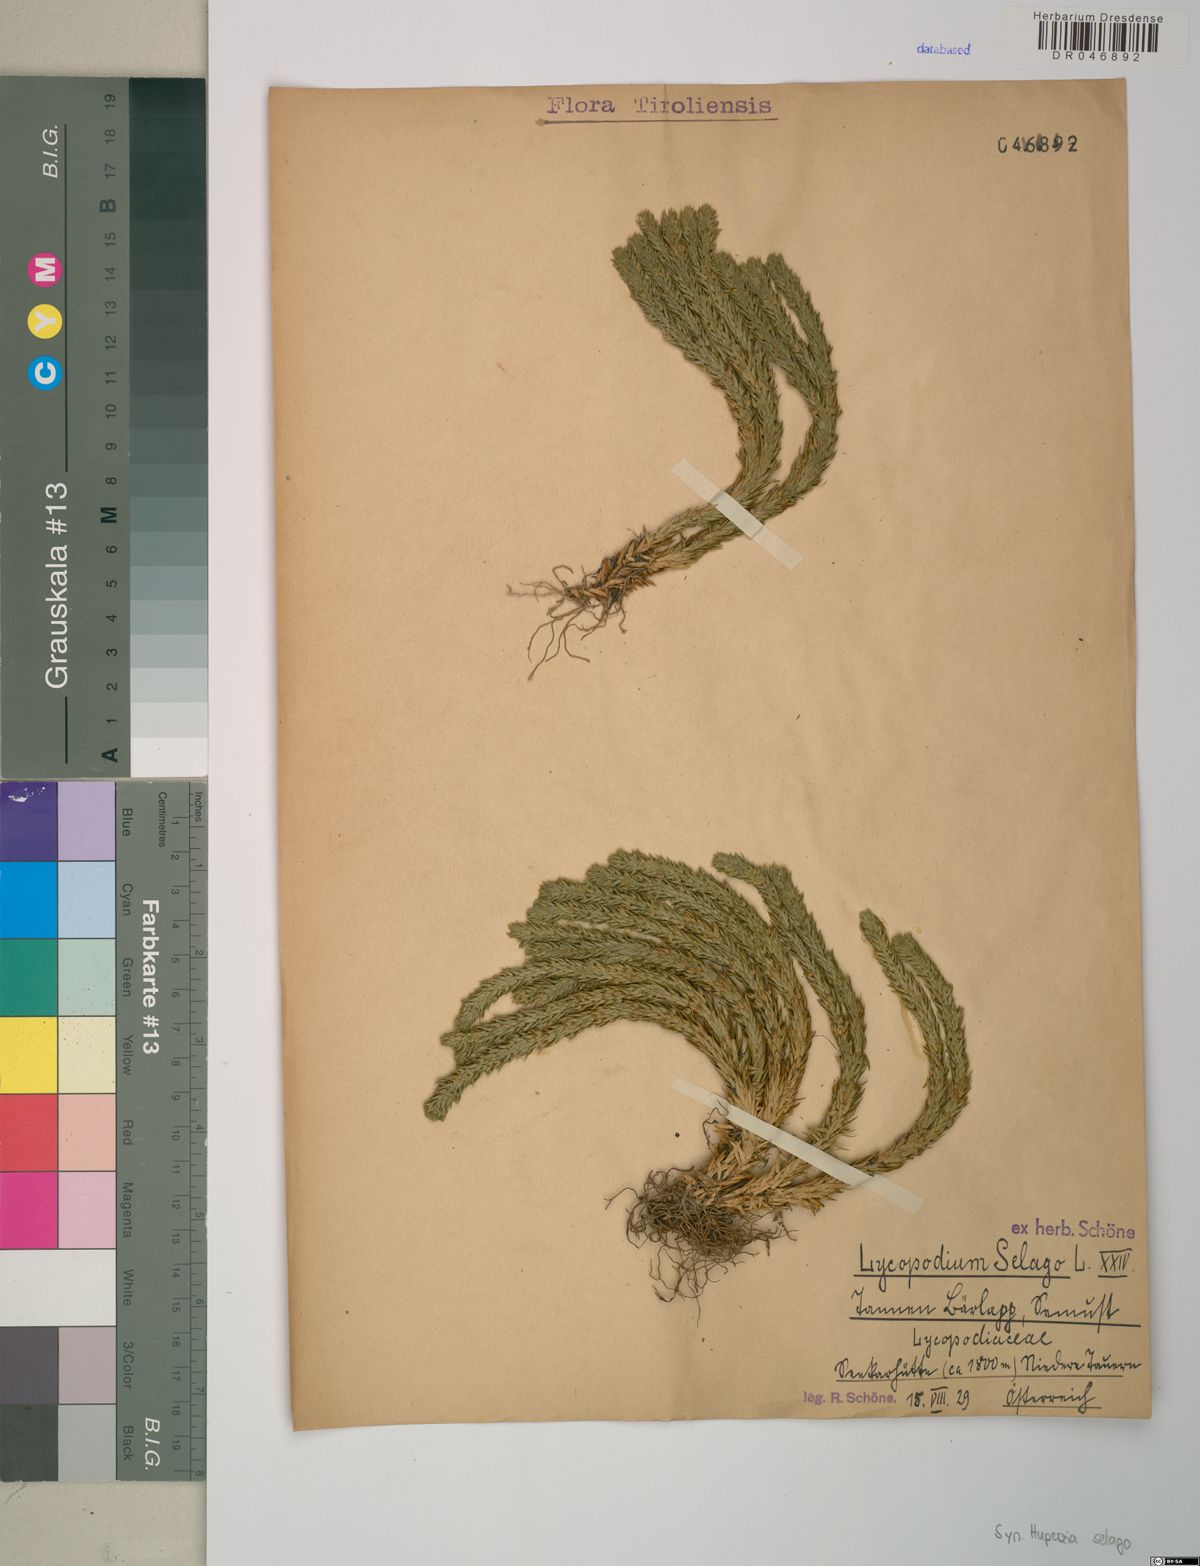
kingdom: Plantae
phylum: Tracheophyta
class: Lycopodiopsida
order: Lycopodiales
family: Lycopodiaceae
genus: Huperzia
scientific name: Huperzia selago
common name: Northern firmoss
